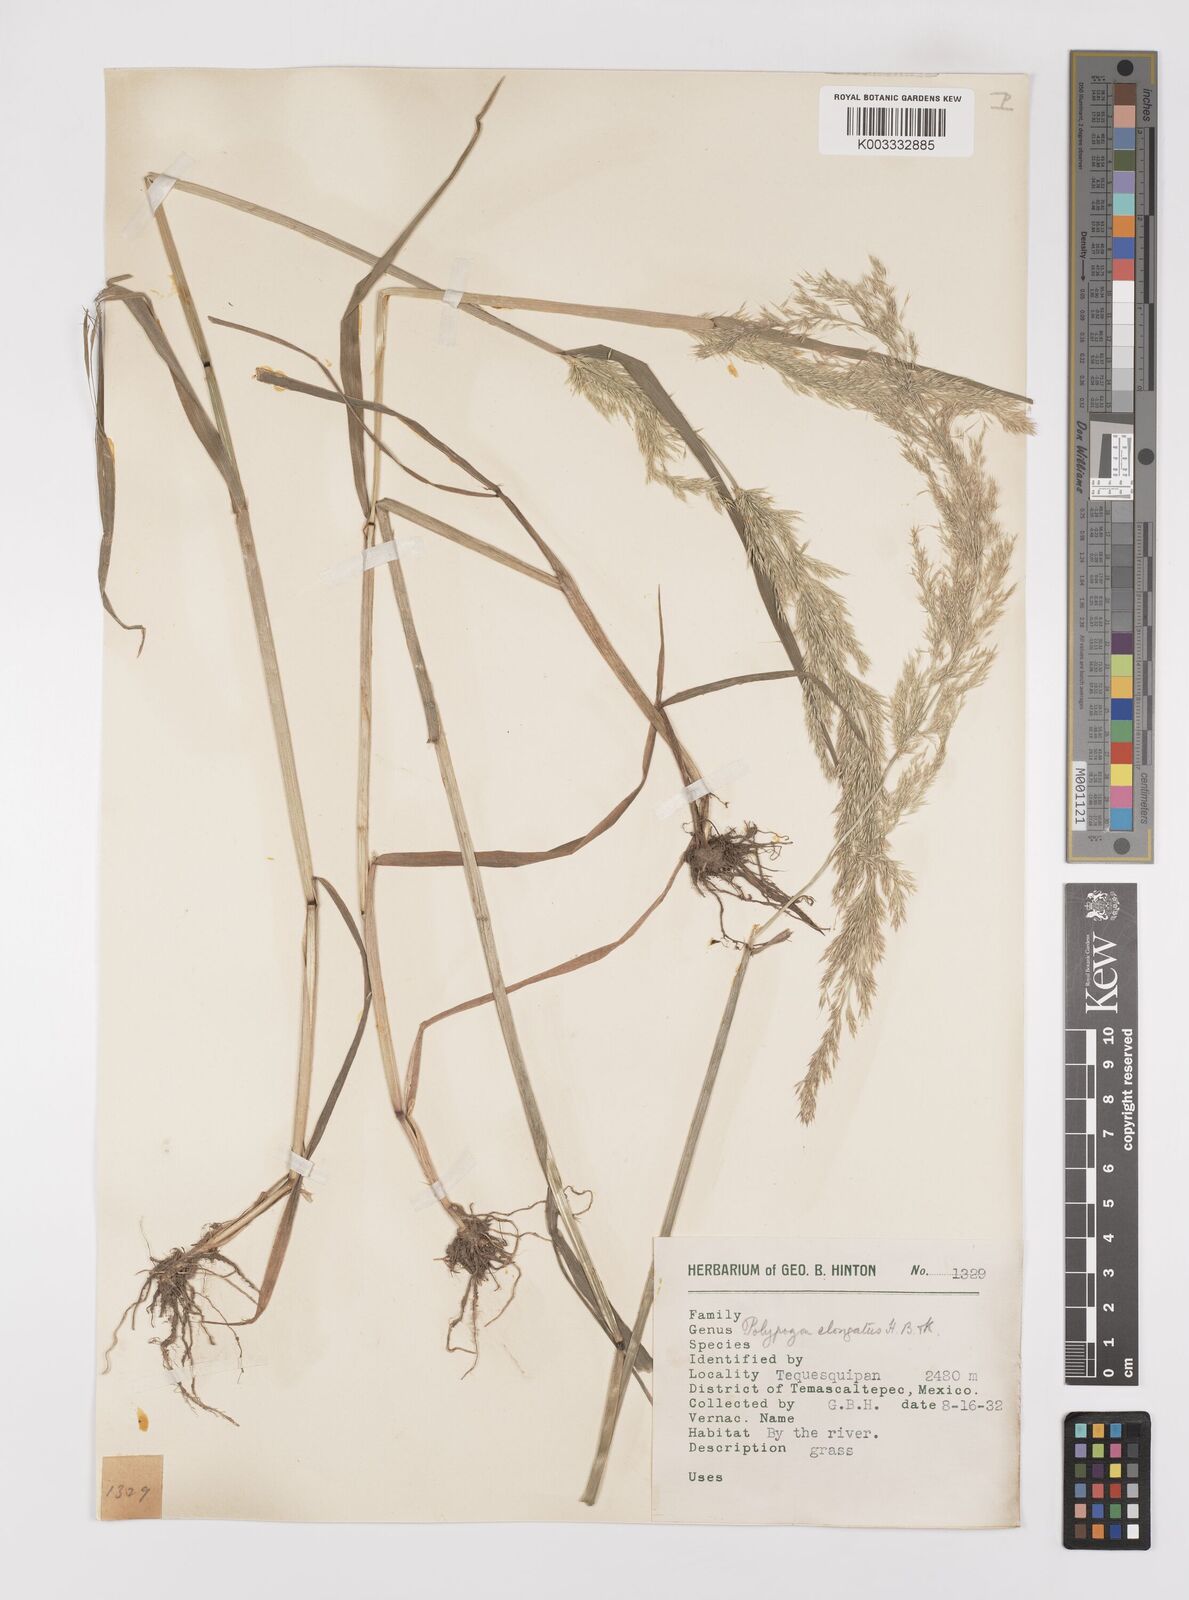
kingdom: Plantae
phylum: Tracheophyta
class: Liliopsida
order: Poales
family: Poaceae
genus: Polypogon
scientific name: Polypogon elongatus
